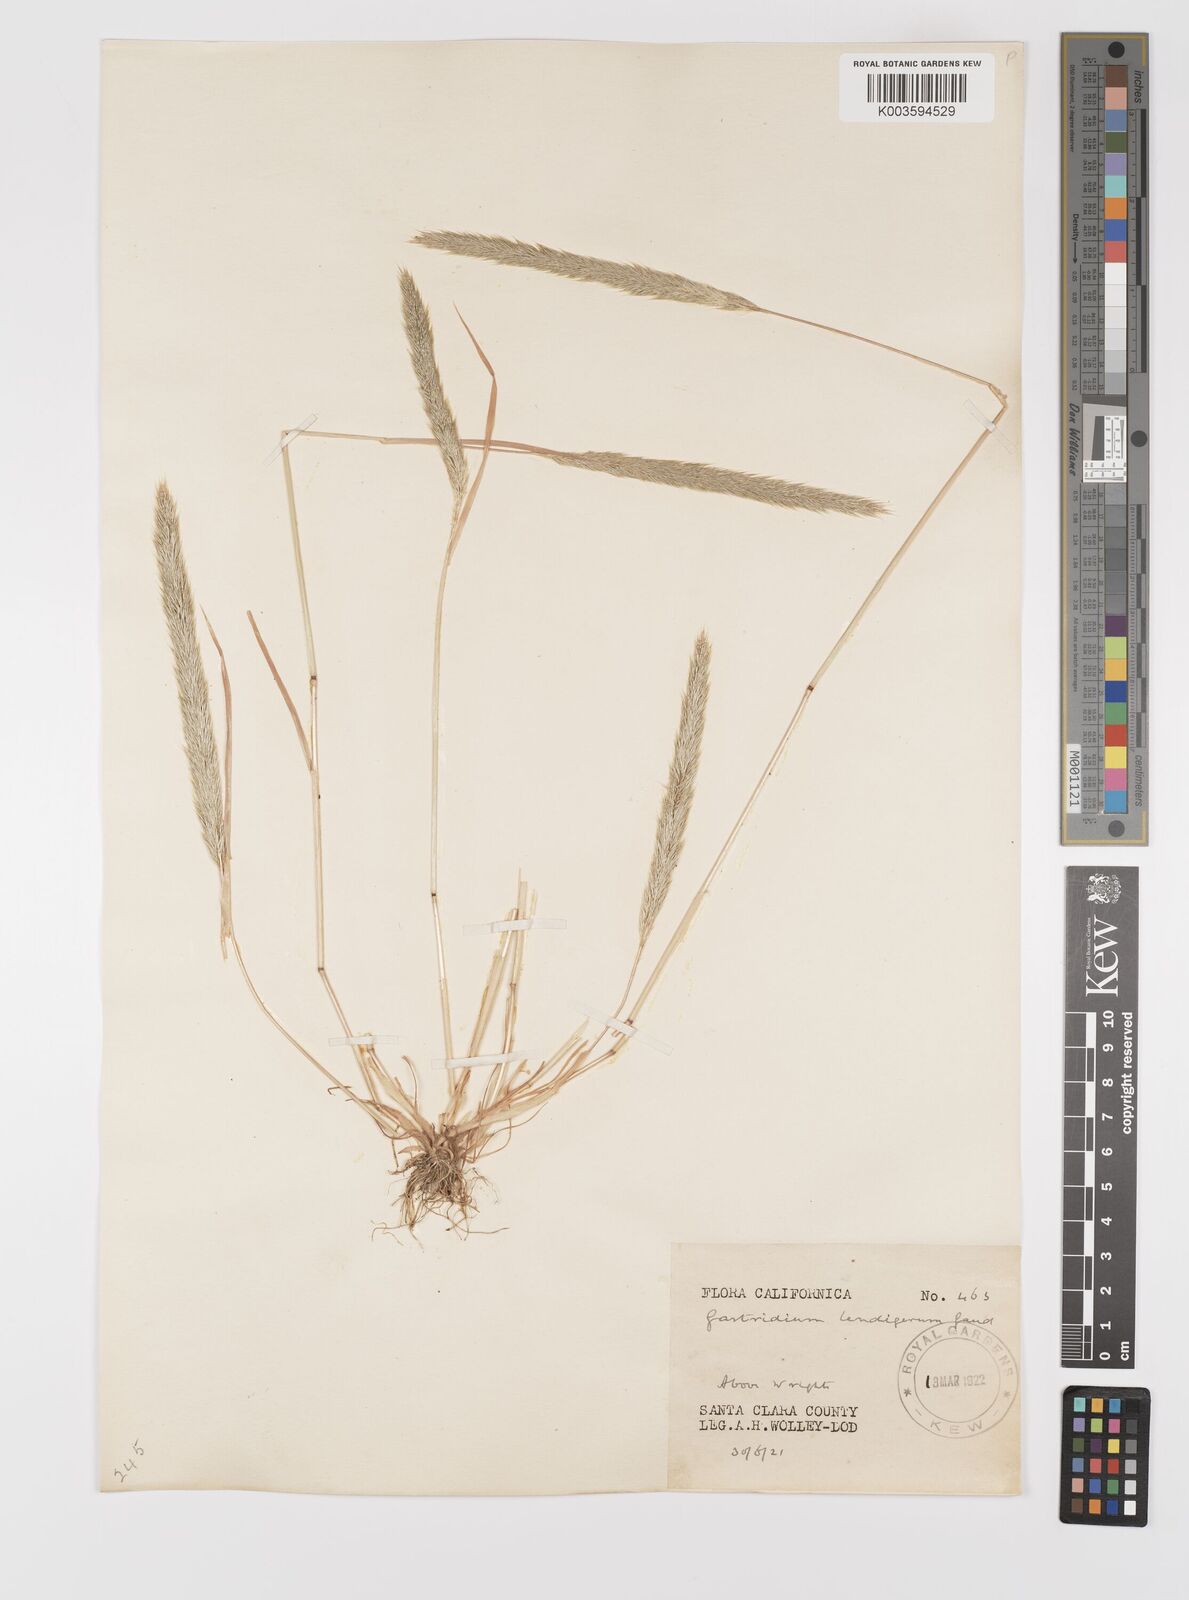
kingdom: Plantae
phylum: Tracheophyta
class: Liliopsida
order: Poales
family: Poaceae
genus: Gastridium
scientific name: Gastridium phleoides
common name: Nit grass
